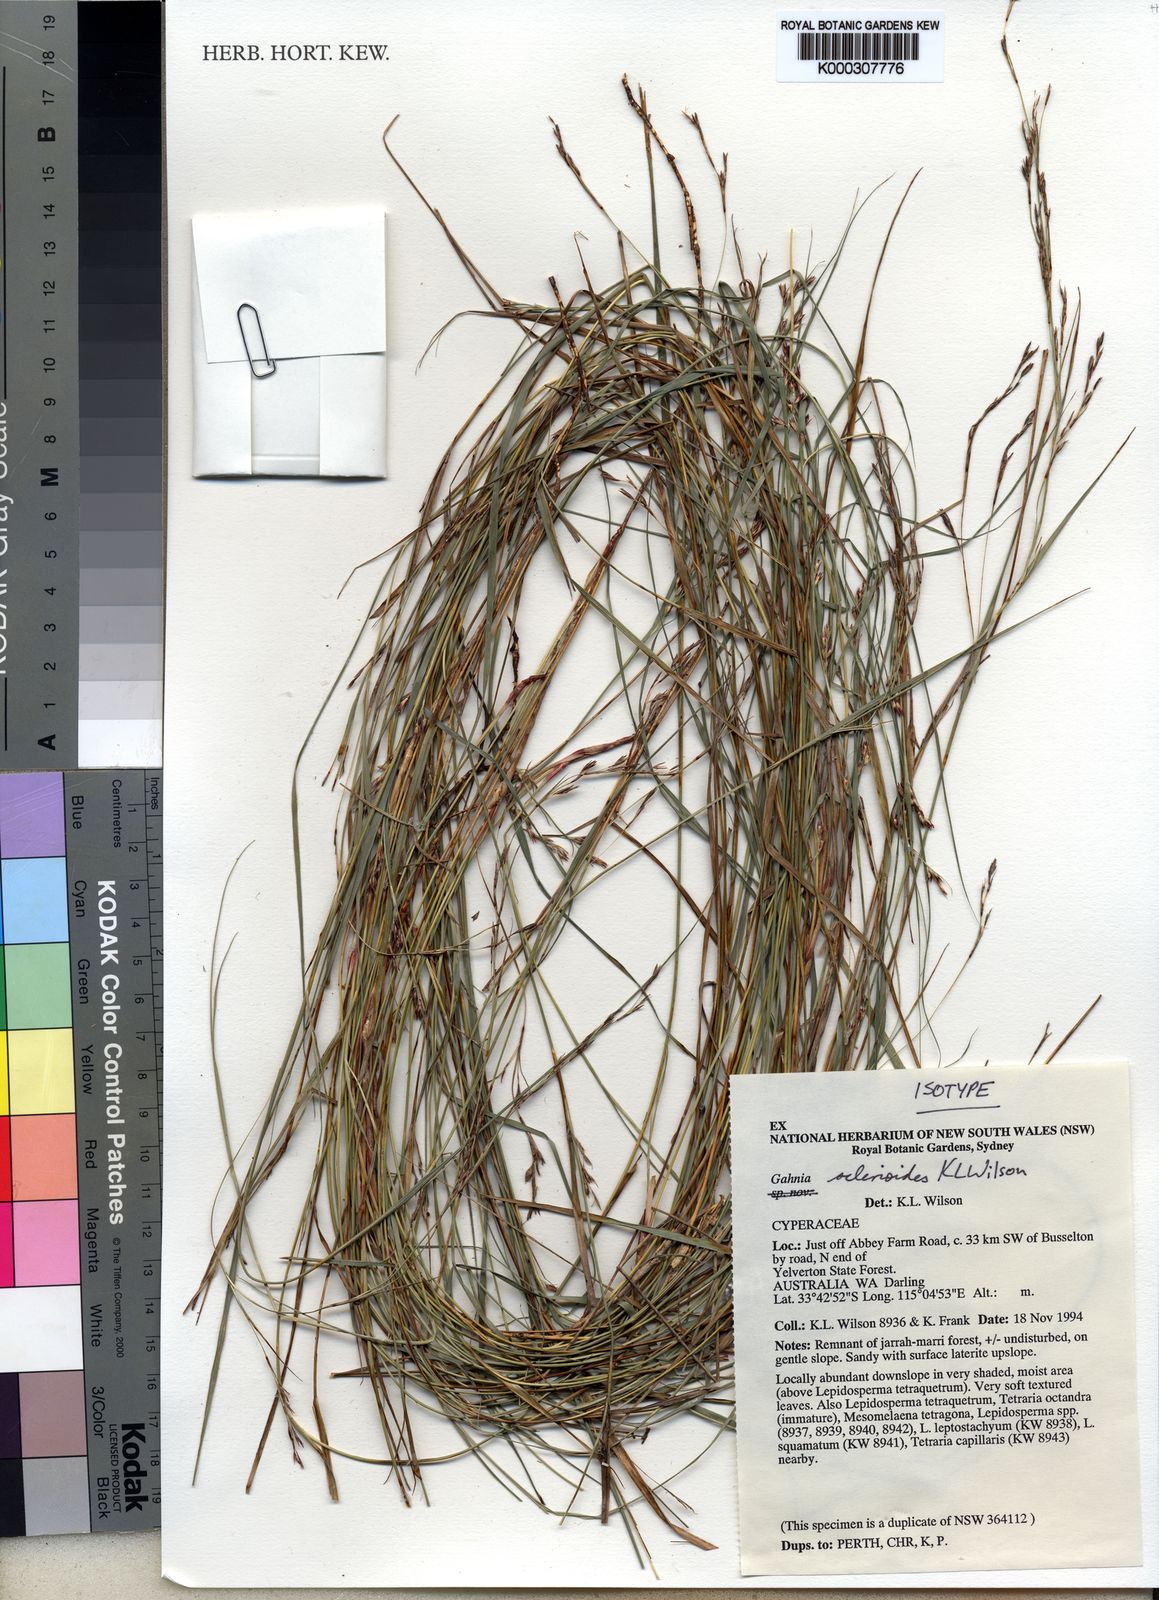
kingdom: Plantae
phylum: Tracheophyta
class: Liliopsida
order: Poales
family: Cyperaceae
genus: Gahnia
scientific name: Gahnia
